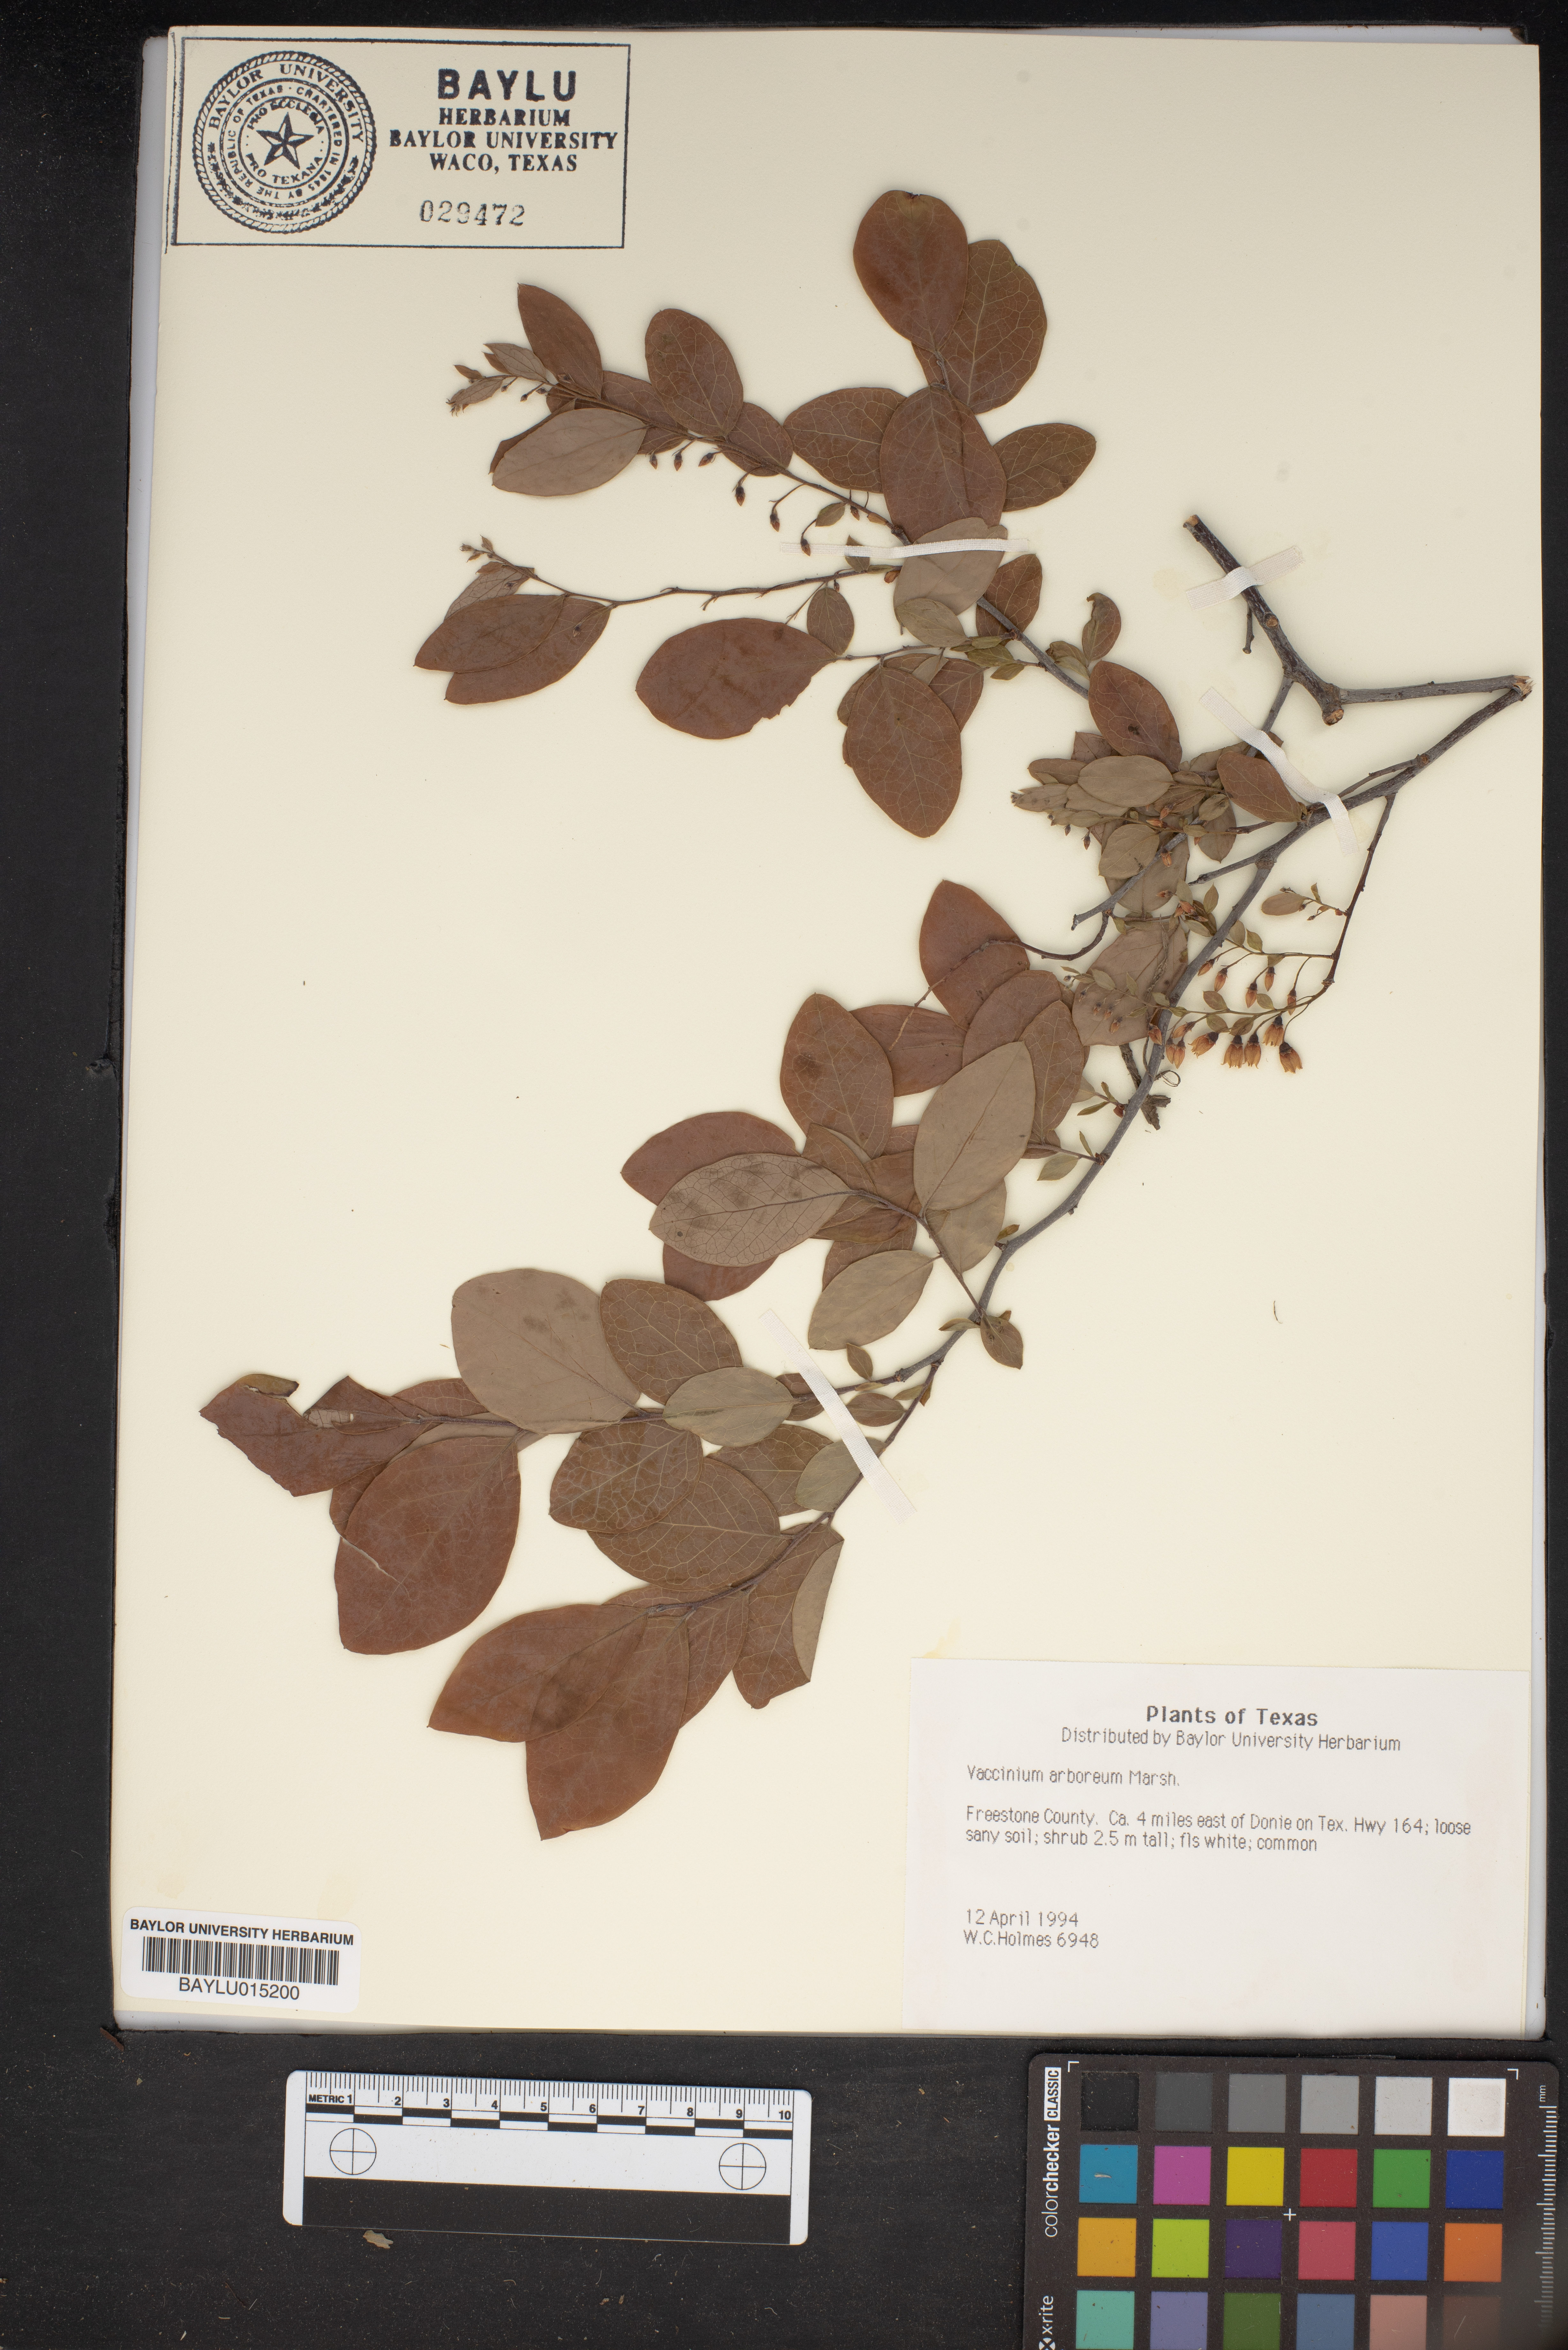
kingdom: Plantae
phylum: Tracheophyta
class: Magnoliopsida
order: Ericales
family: Ericaceae
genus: Vaccinium
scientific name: Vaccinium arboreum
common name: Farkleberry
